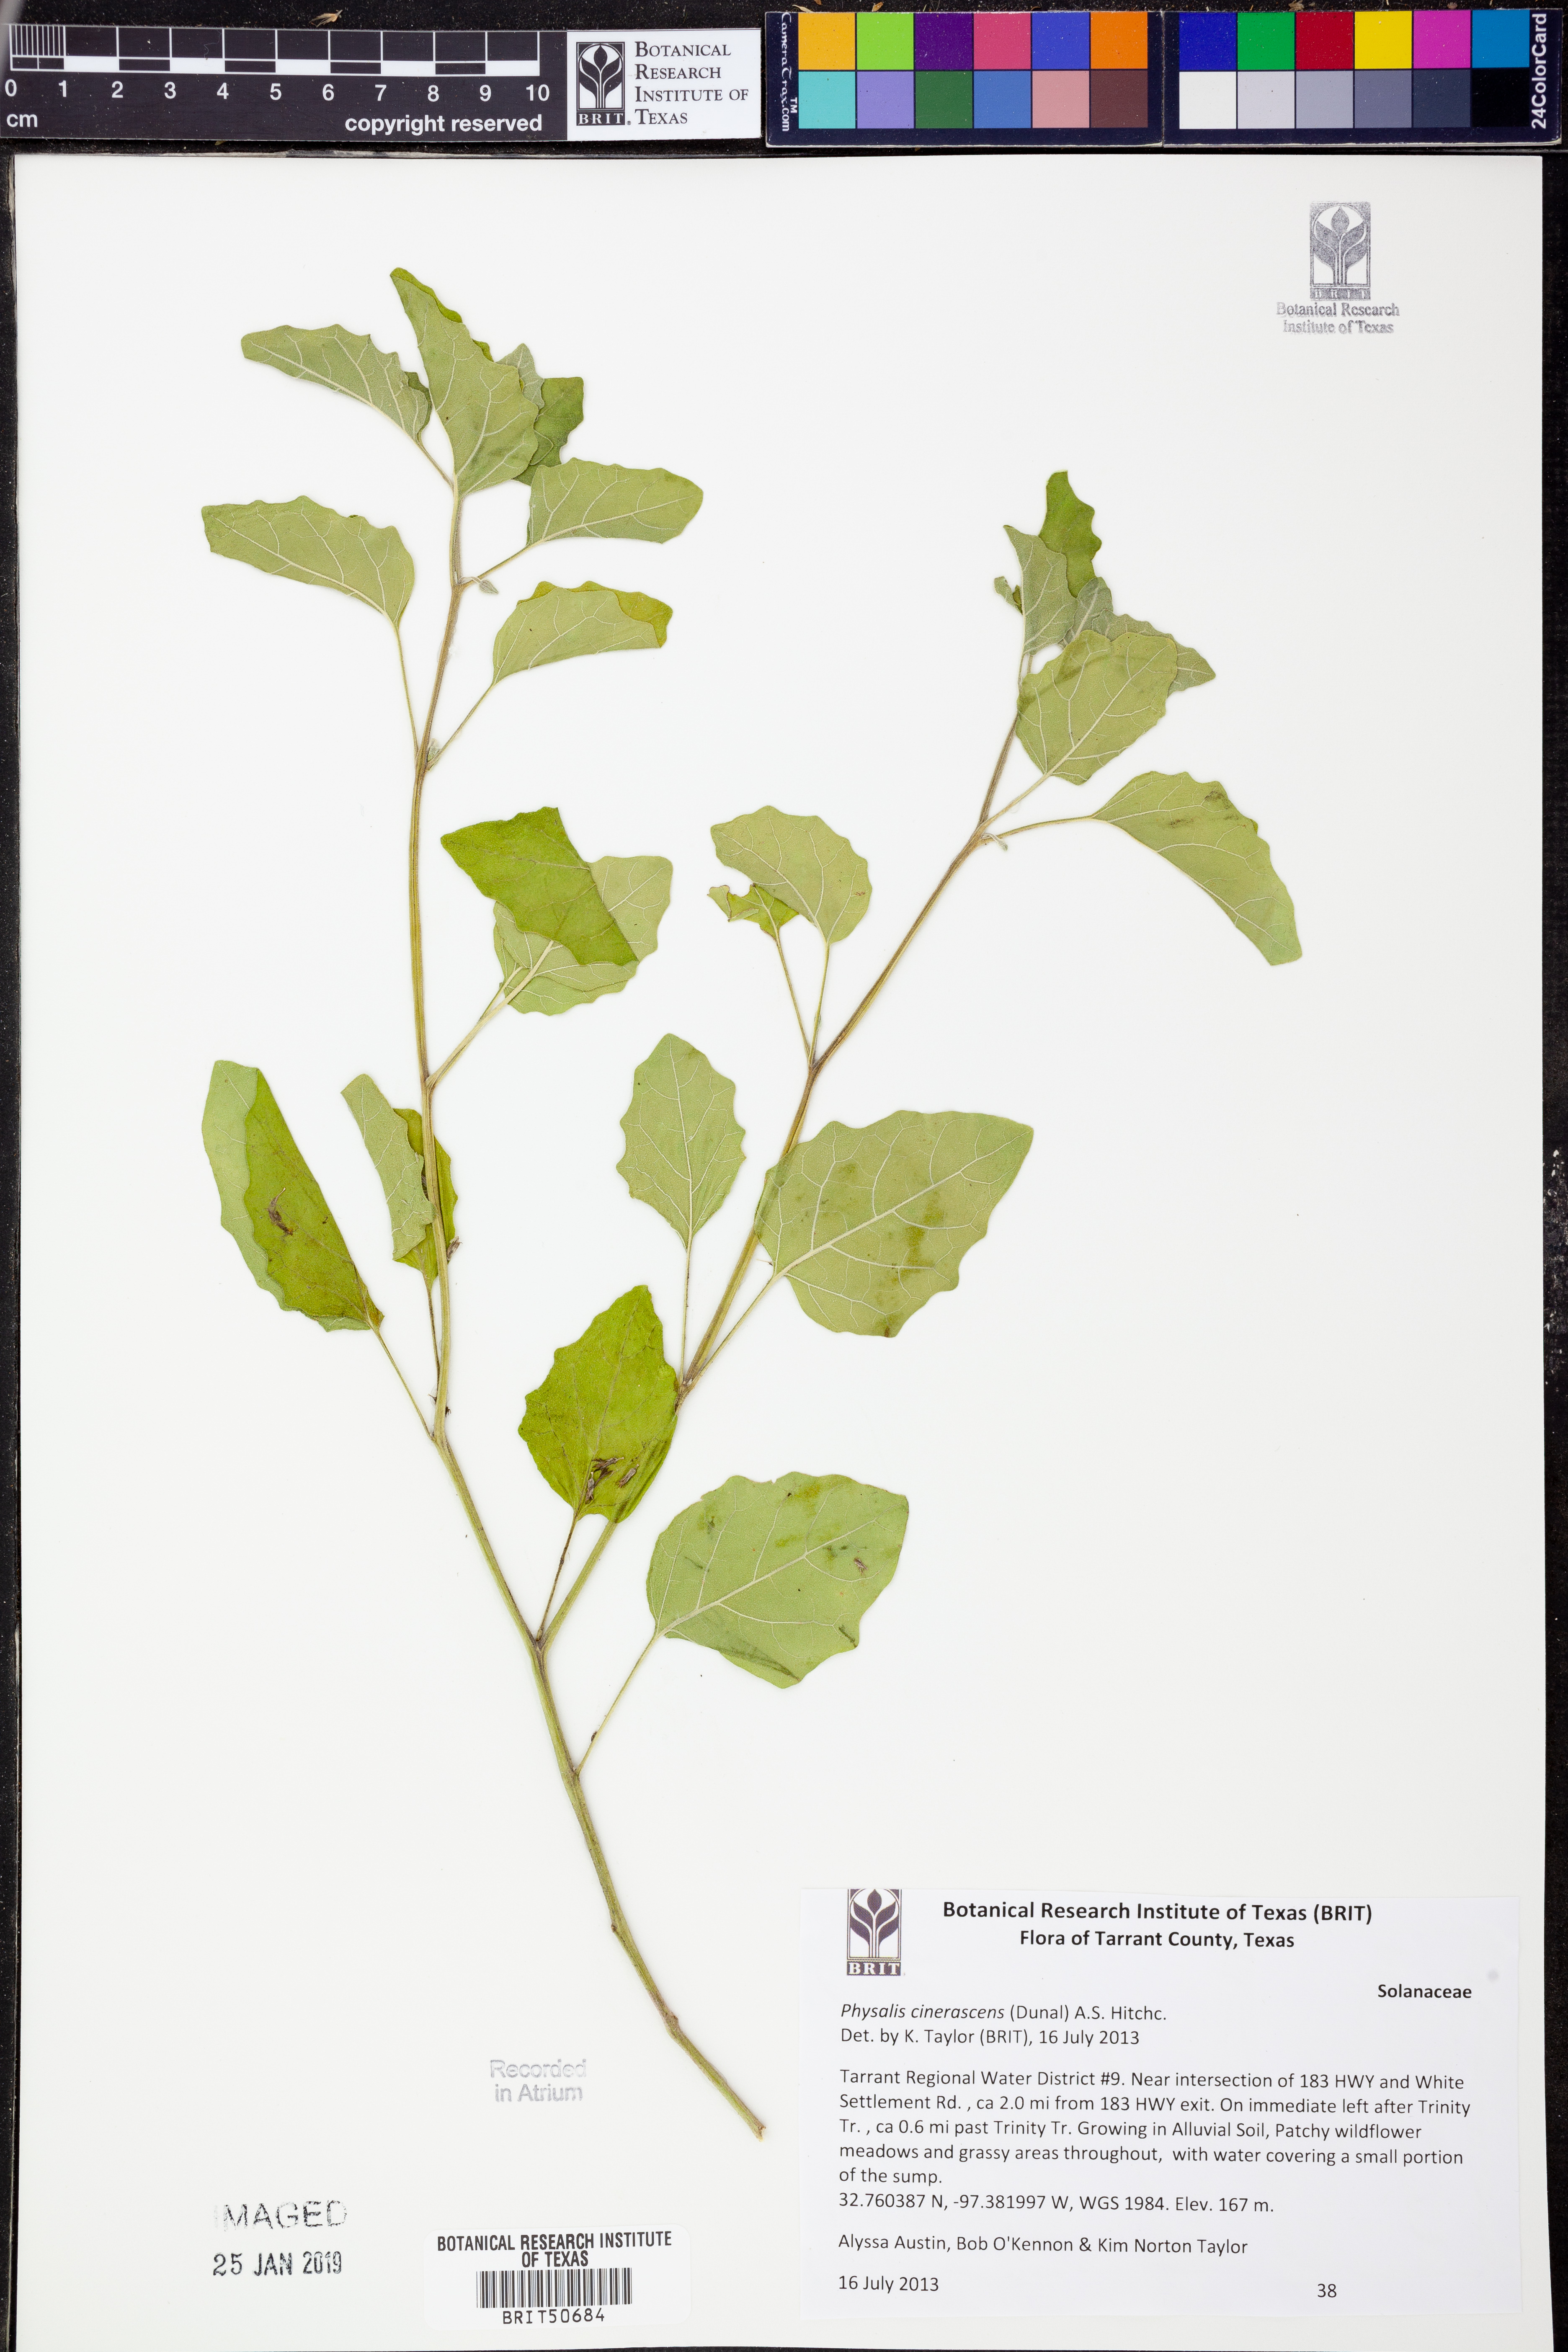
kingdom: Plantae
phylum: Tracheophyta
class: Magnoliopsida
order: Solanales
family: Solanaceae
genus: Physalis
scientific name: Physalis cinerascens
